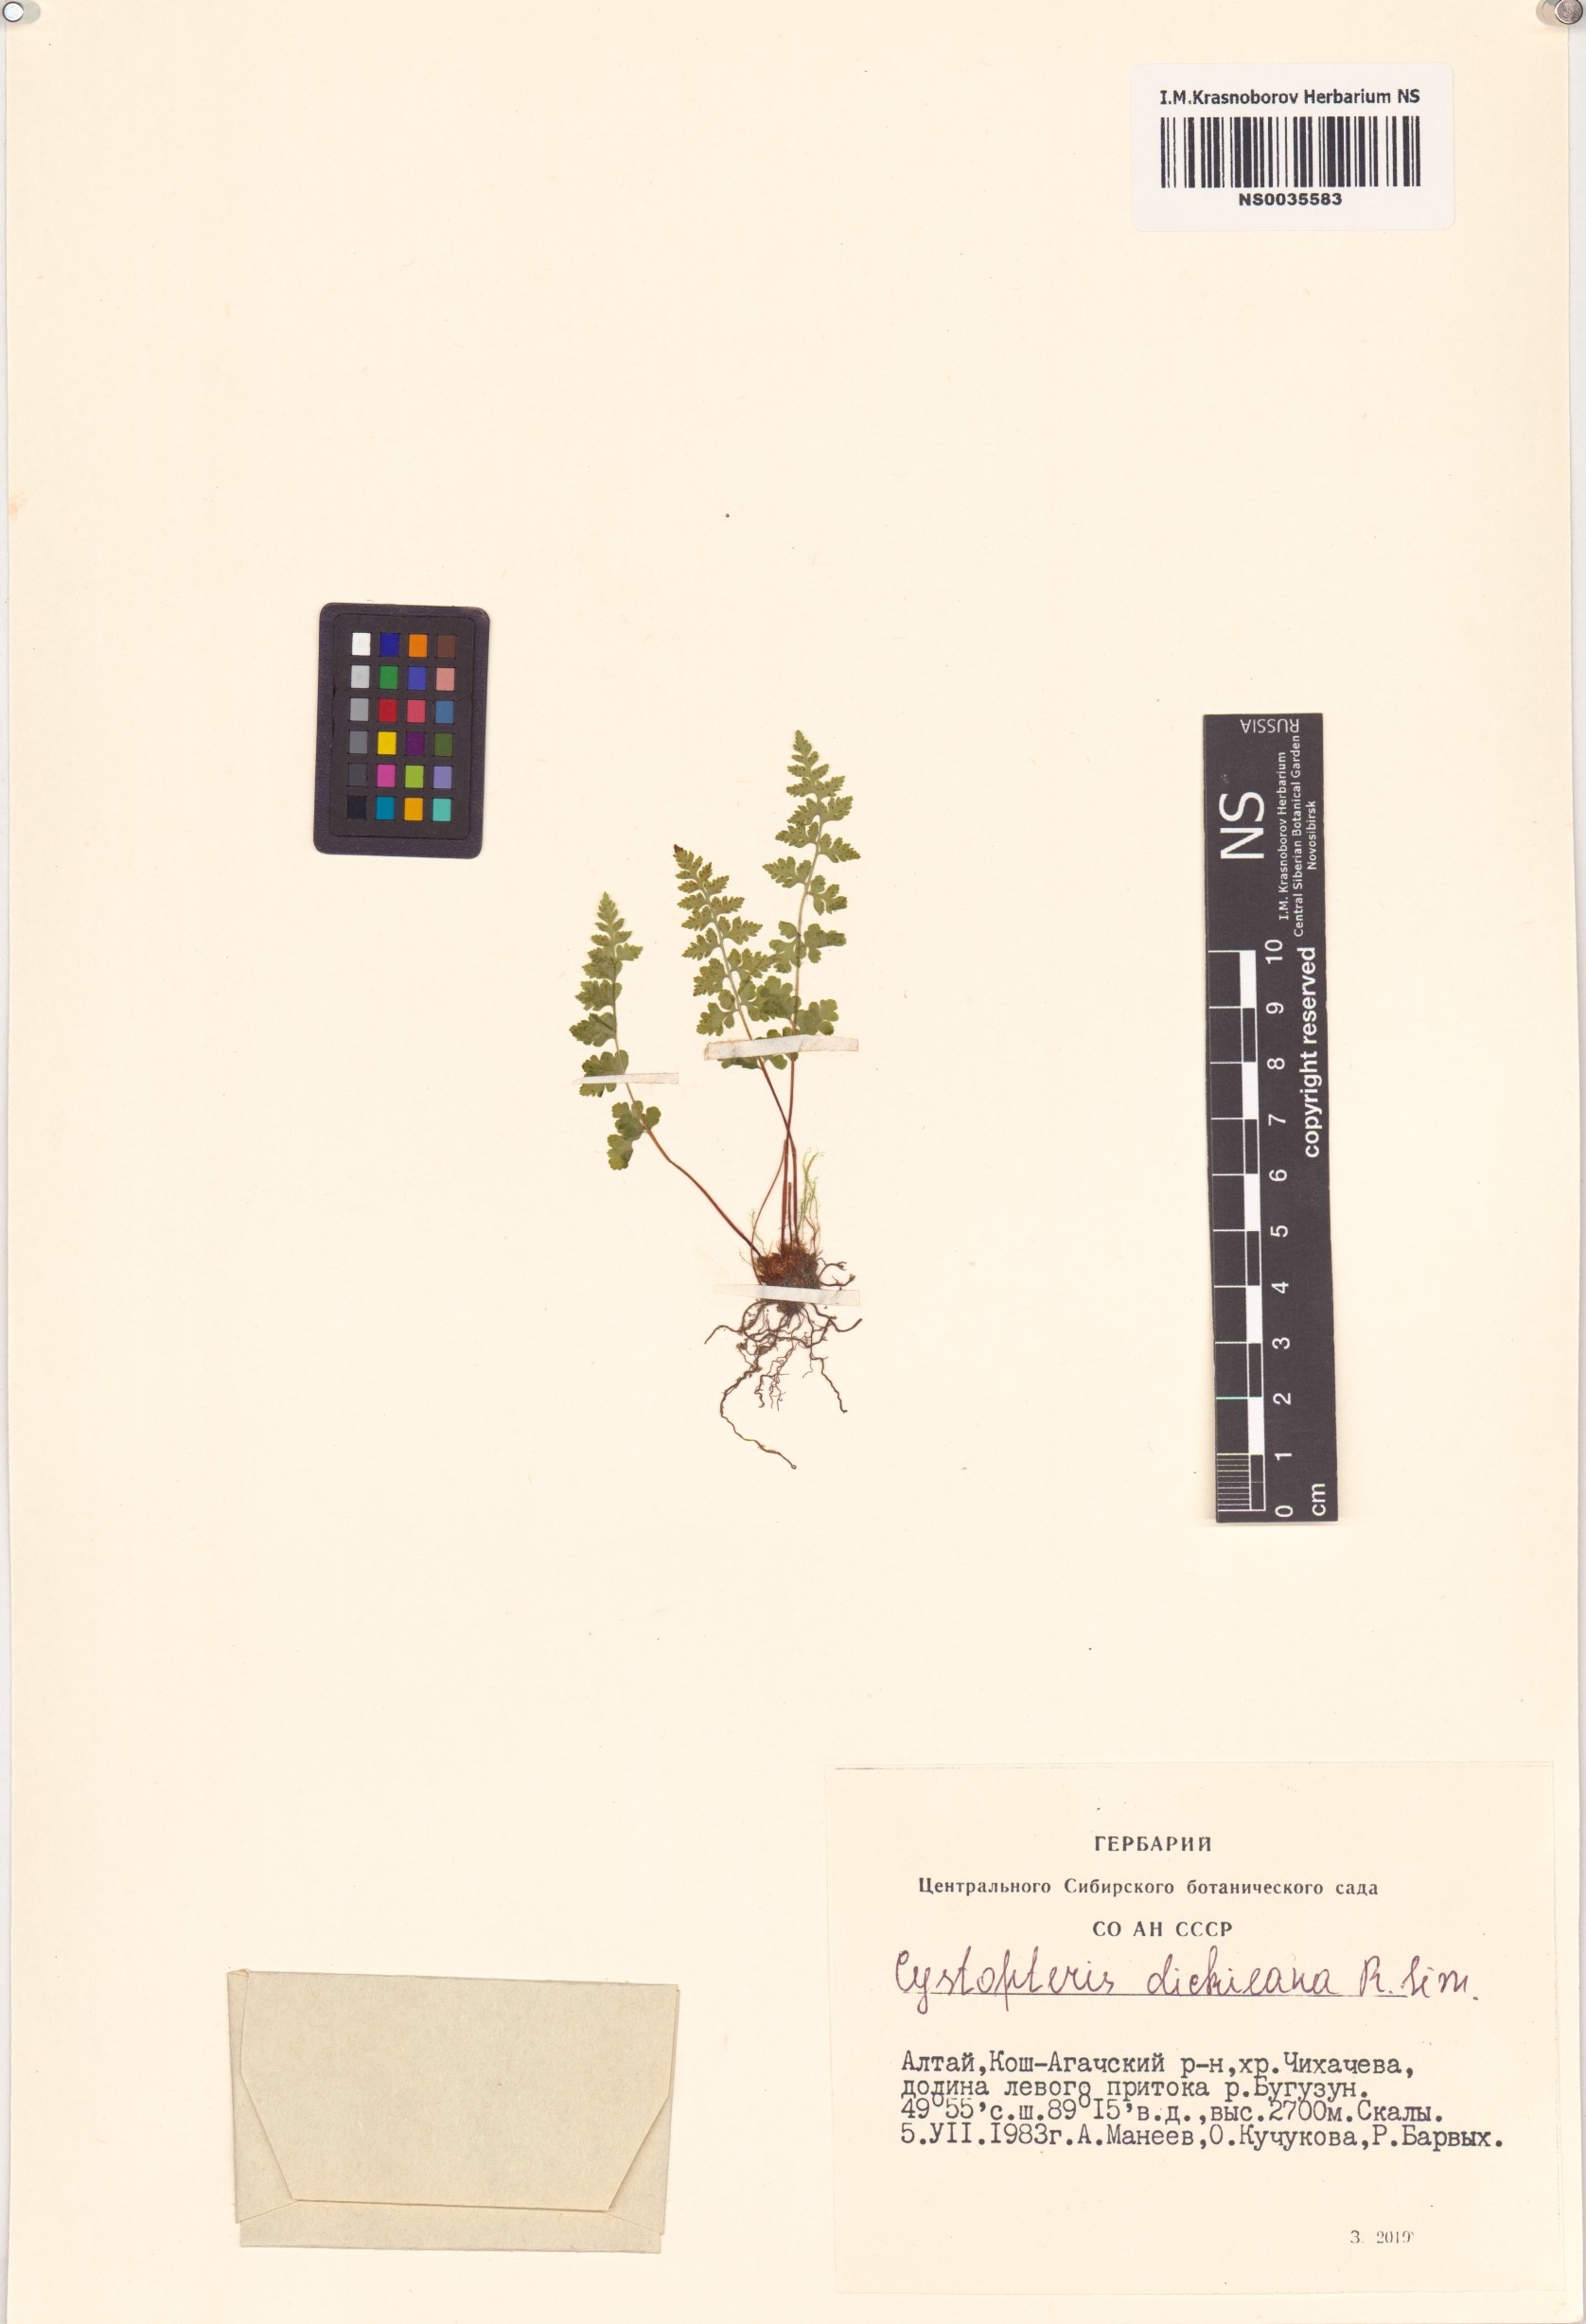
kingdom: Plantae
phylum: Tracheophyta
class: Polypodiopsida
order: Polypodiales
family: Cystopteridaceae
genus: Cystopteris
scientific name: Cystopteris dickieana
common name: Dickie's bladder-fern
